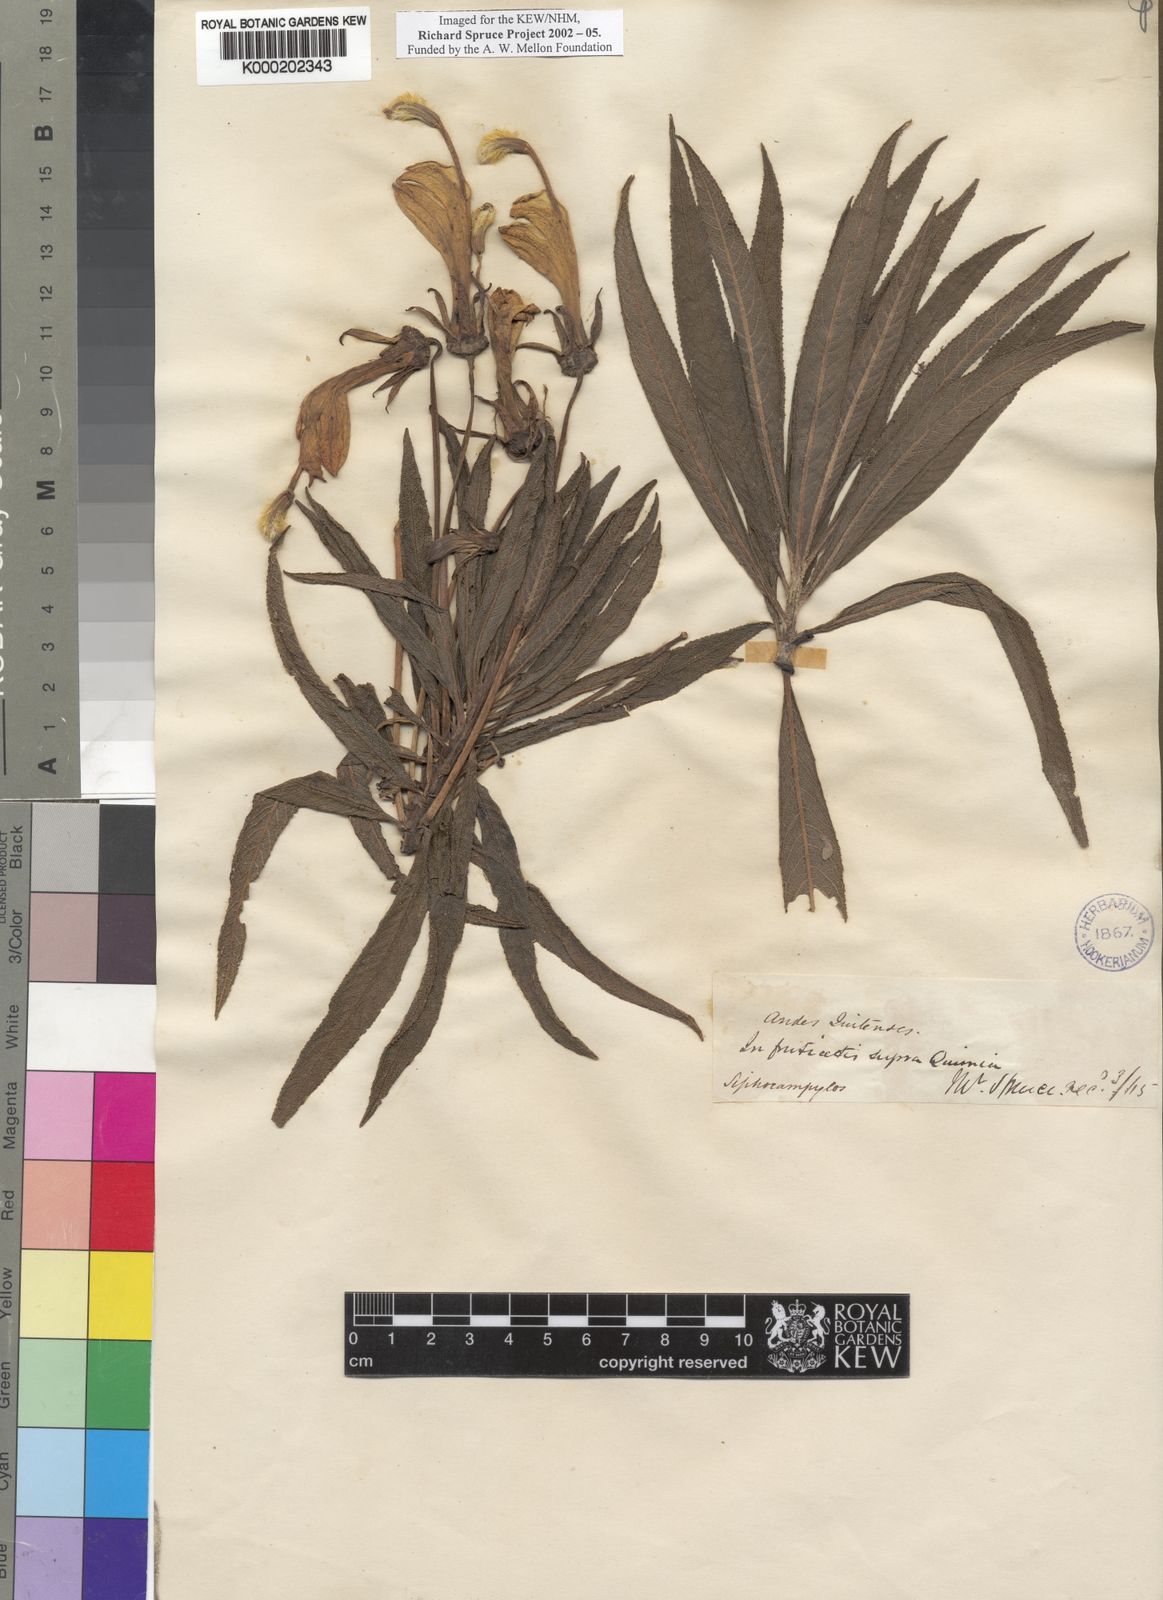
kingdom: Plantae
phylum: Tracheophyta
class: Magnoliopsida
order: Asterales
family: Campanulaceae
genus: Siphocampylus
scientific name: Siphocampylus giganteus
